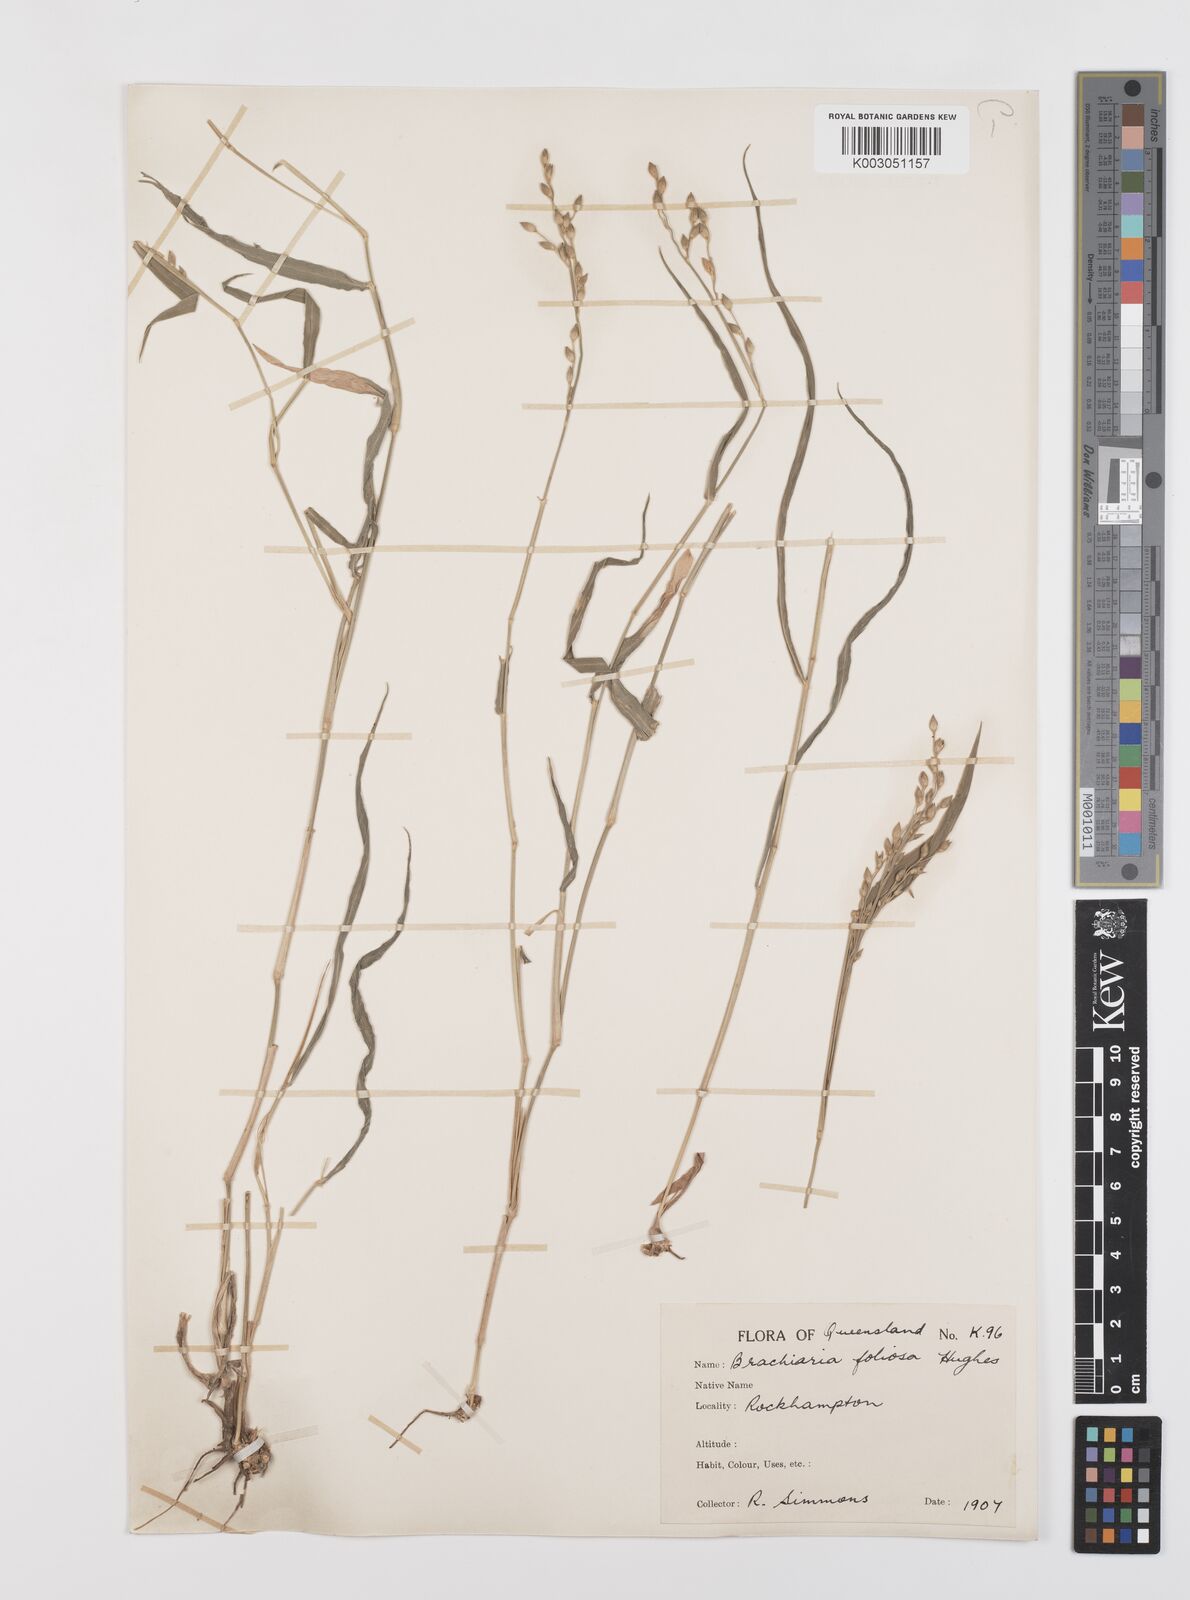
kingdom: Plantae
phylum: Tracheophyta
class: Liliopsida
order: Poales
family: Poaceae
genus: Urochloa
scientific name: Urochloa foliosa
